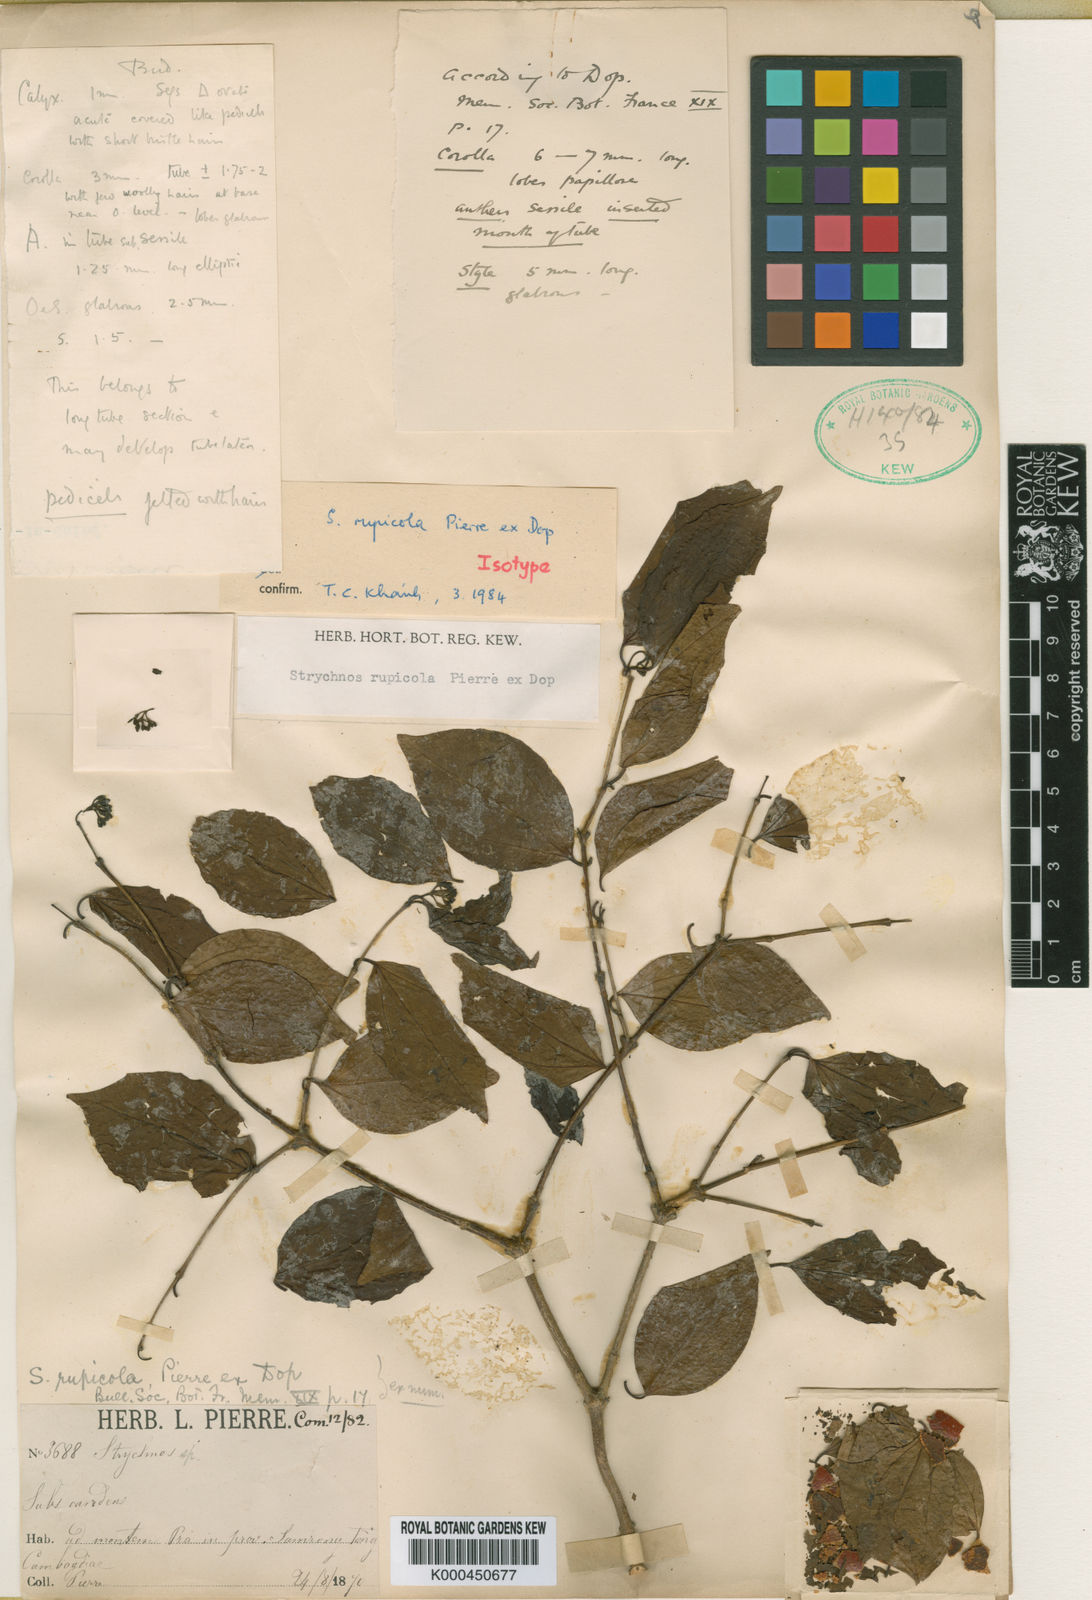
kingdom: Plantae
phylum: Tracheophyta
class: Magnoliopsida
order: Gentianales
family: Loganiaceae
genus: Strychnos
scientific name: Strychnos rupicola
